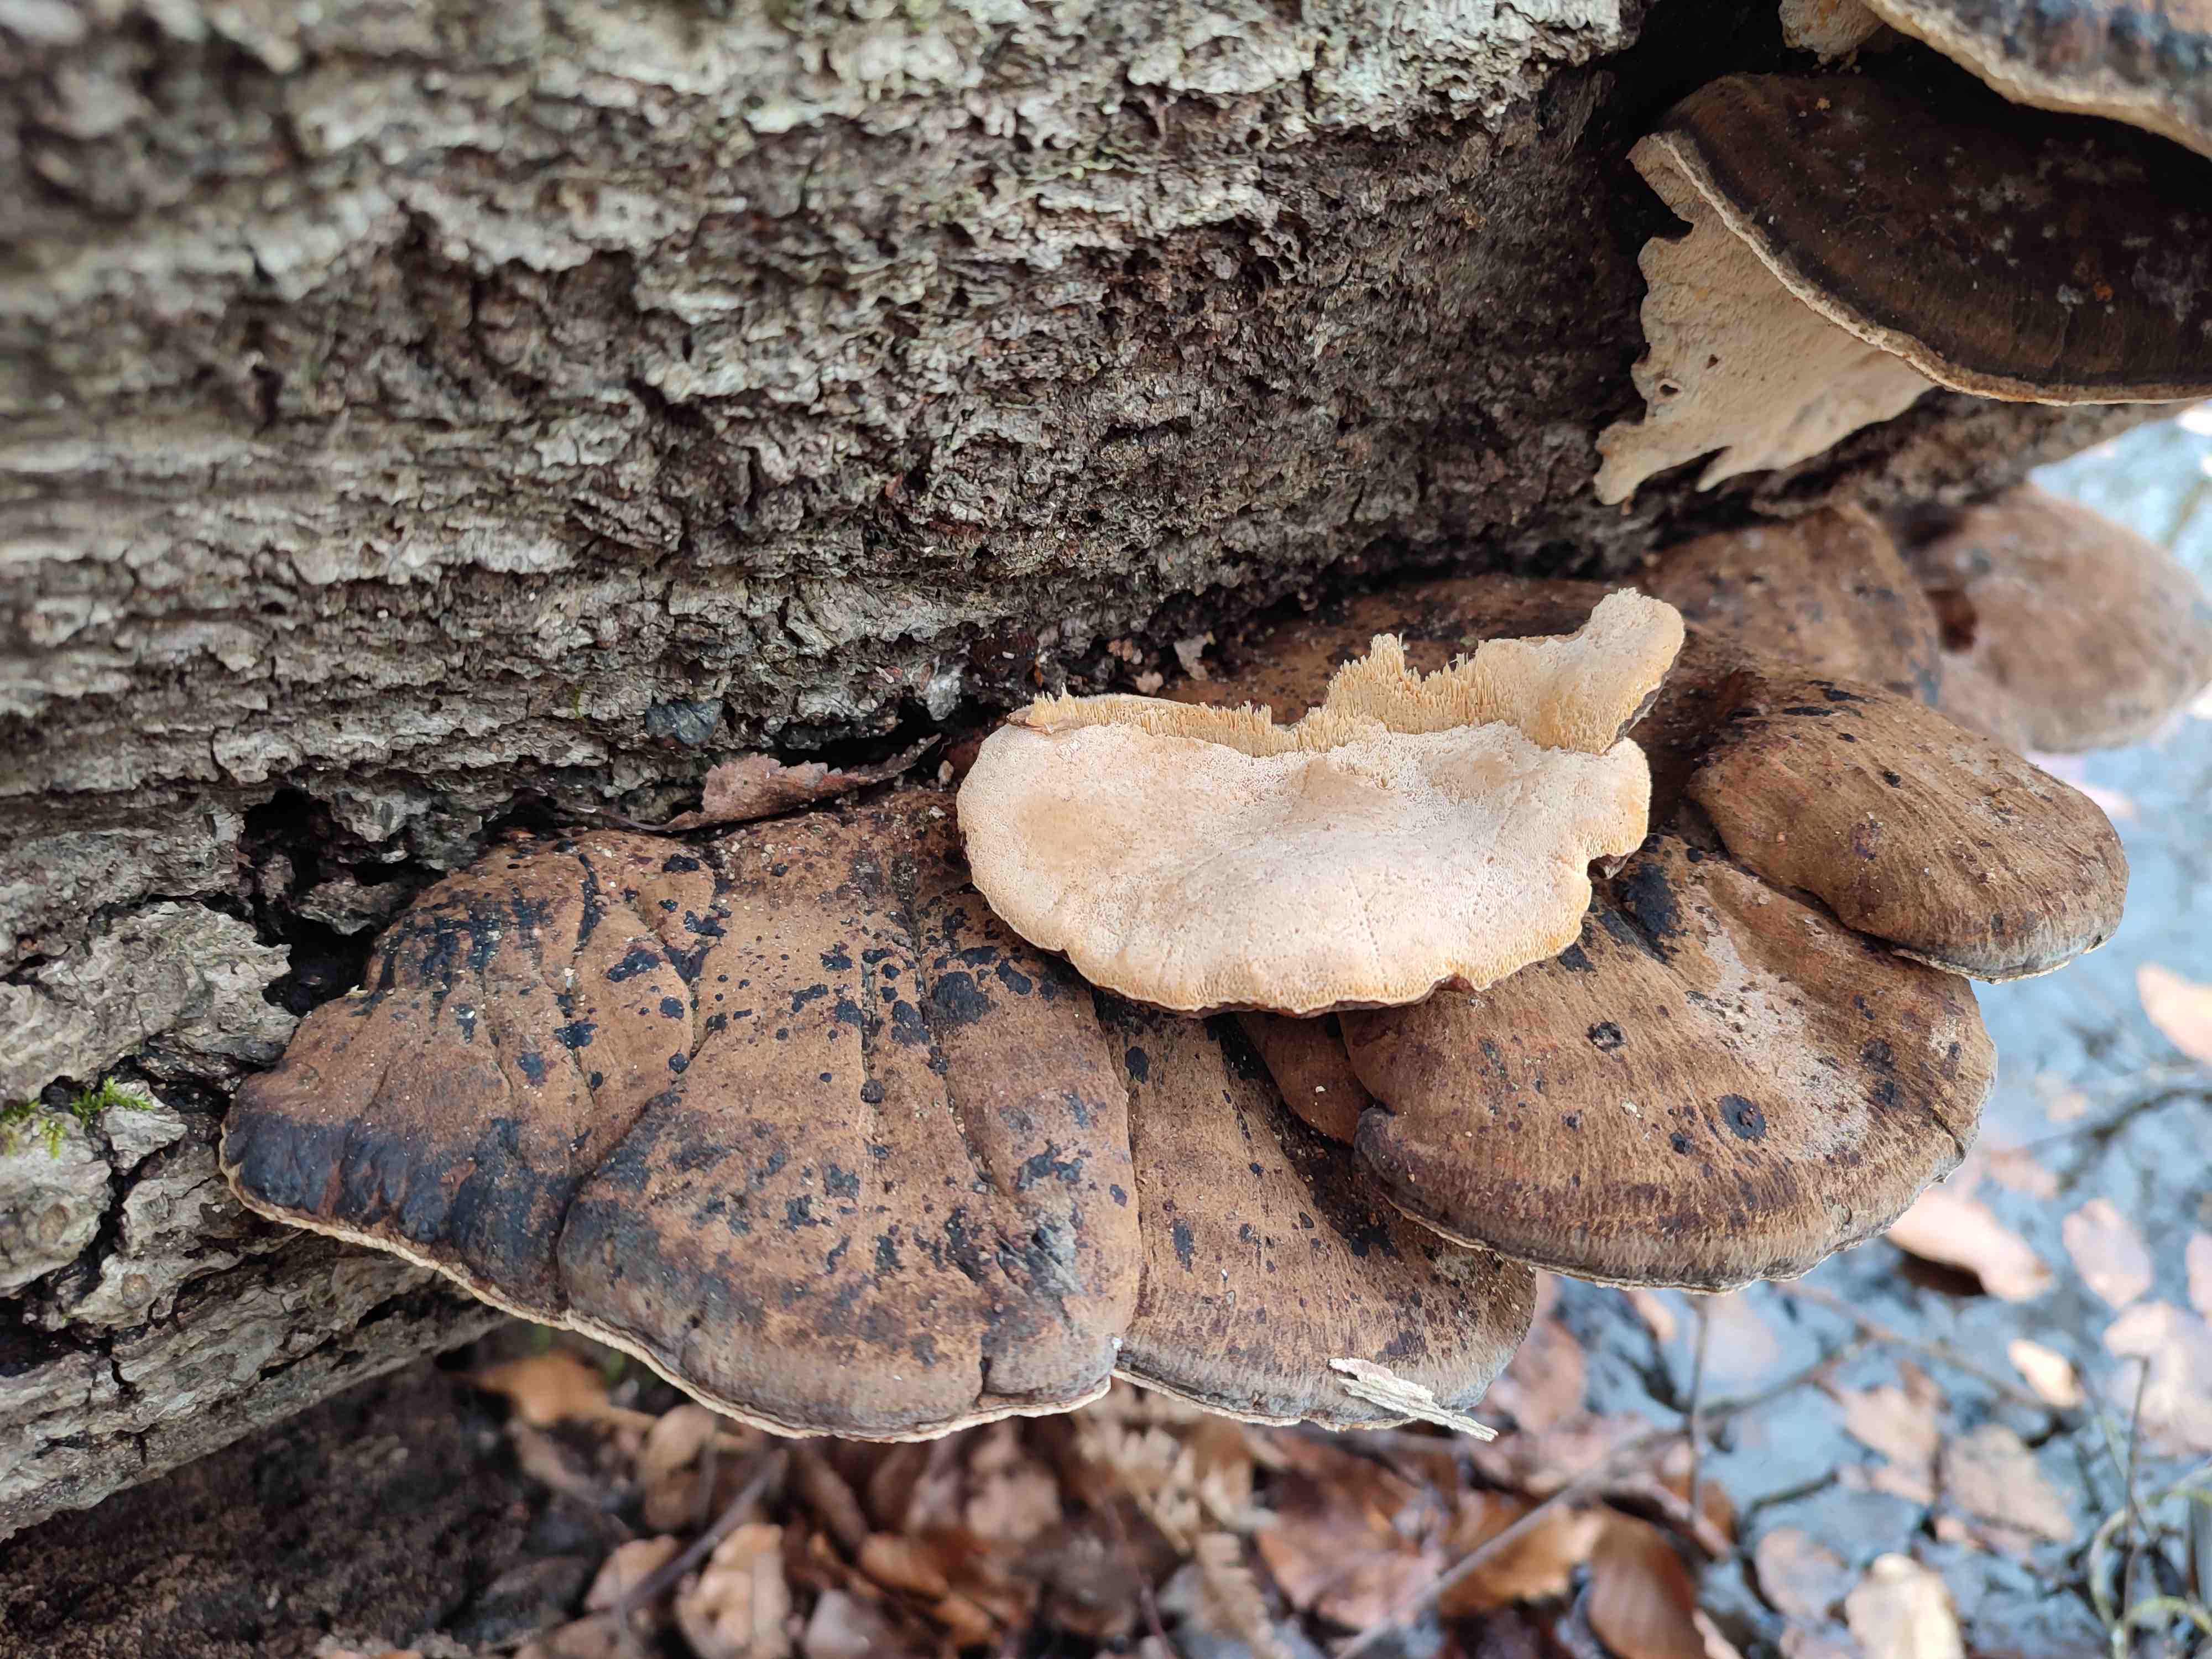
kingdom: Fungi
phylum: Basidiomycota
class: Agaricomycetes
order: Polyporales
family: Ischnodermataceae
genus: Ischnoderma
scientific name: Ischnoderma resinosum
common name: løv-tjæreporesvamp
